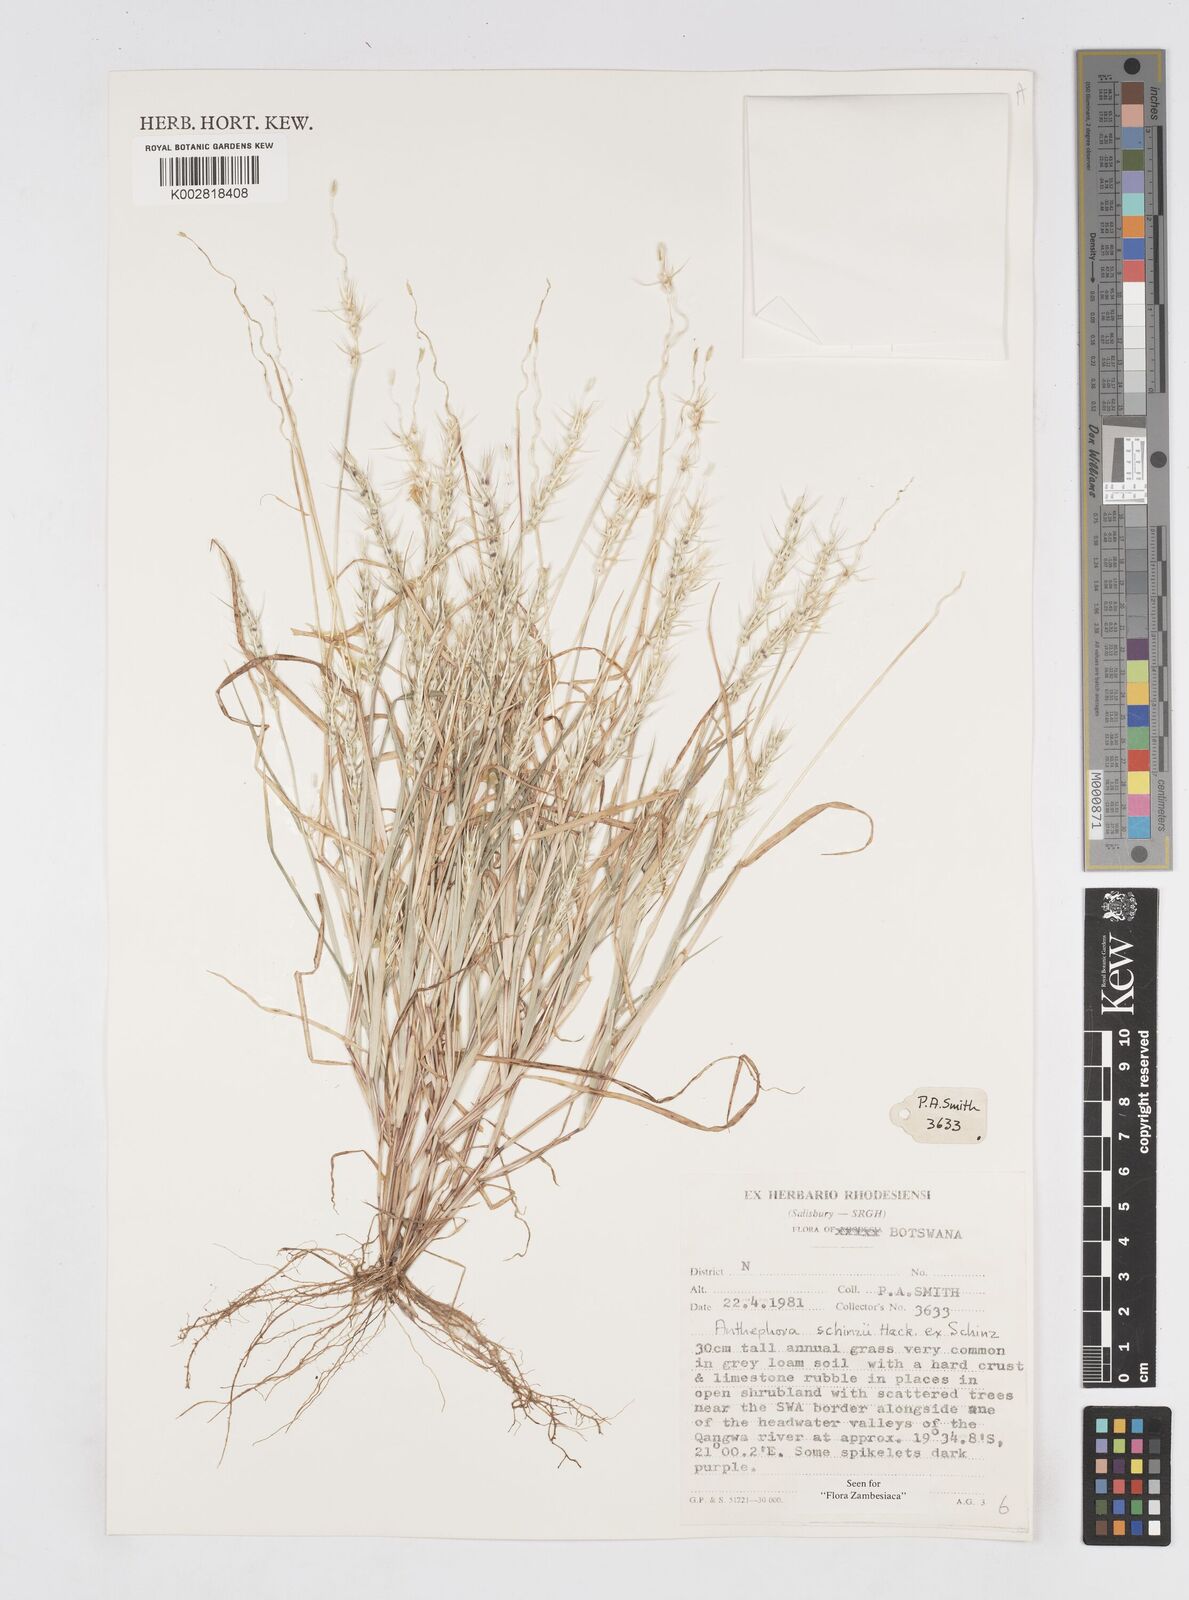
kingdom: Plantae
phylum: Tracheophyta
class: Liliopsida
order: Poales
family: Poaceae
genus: Anthephora
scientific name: Anthephora schinzii
